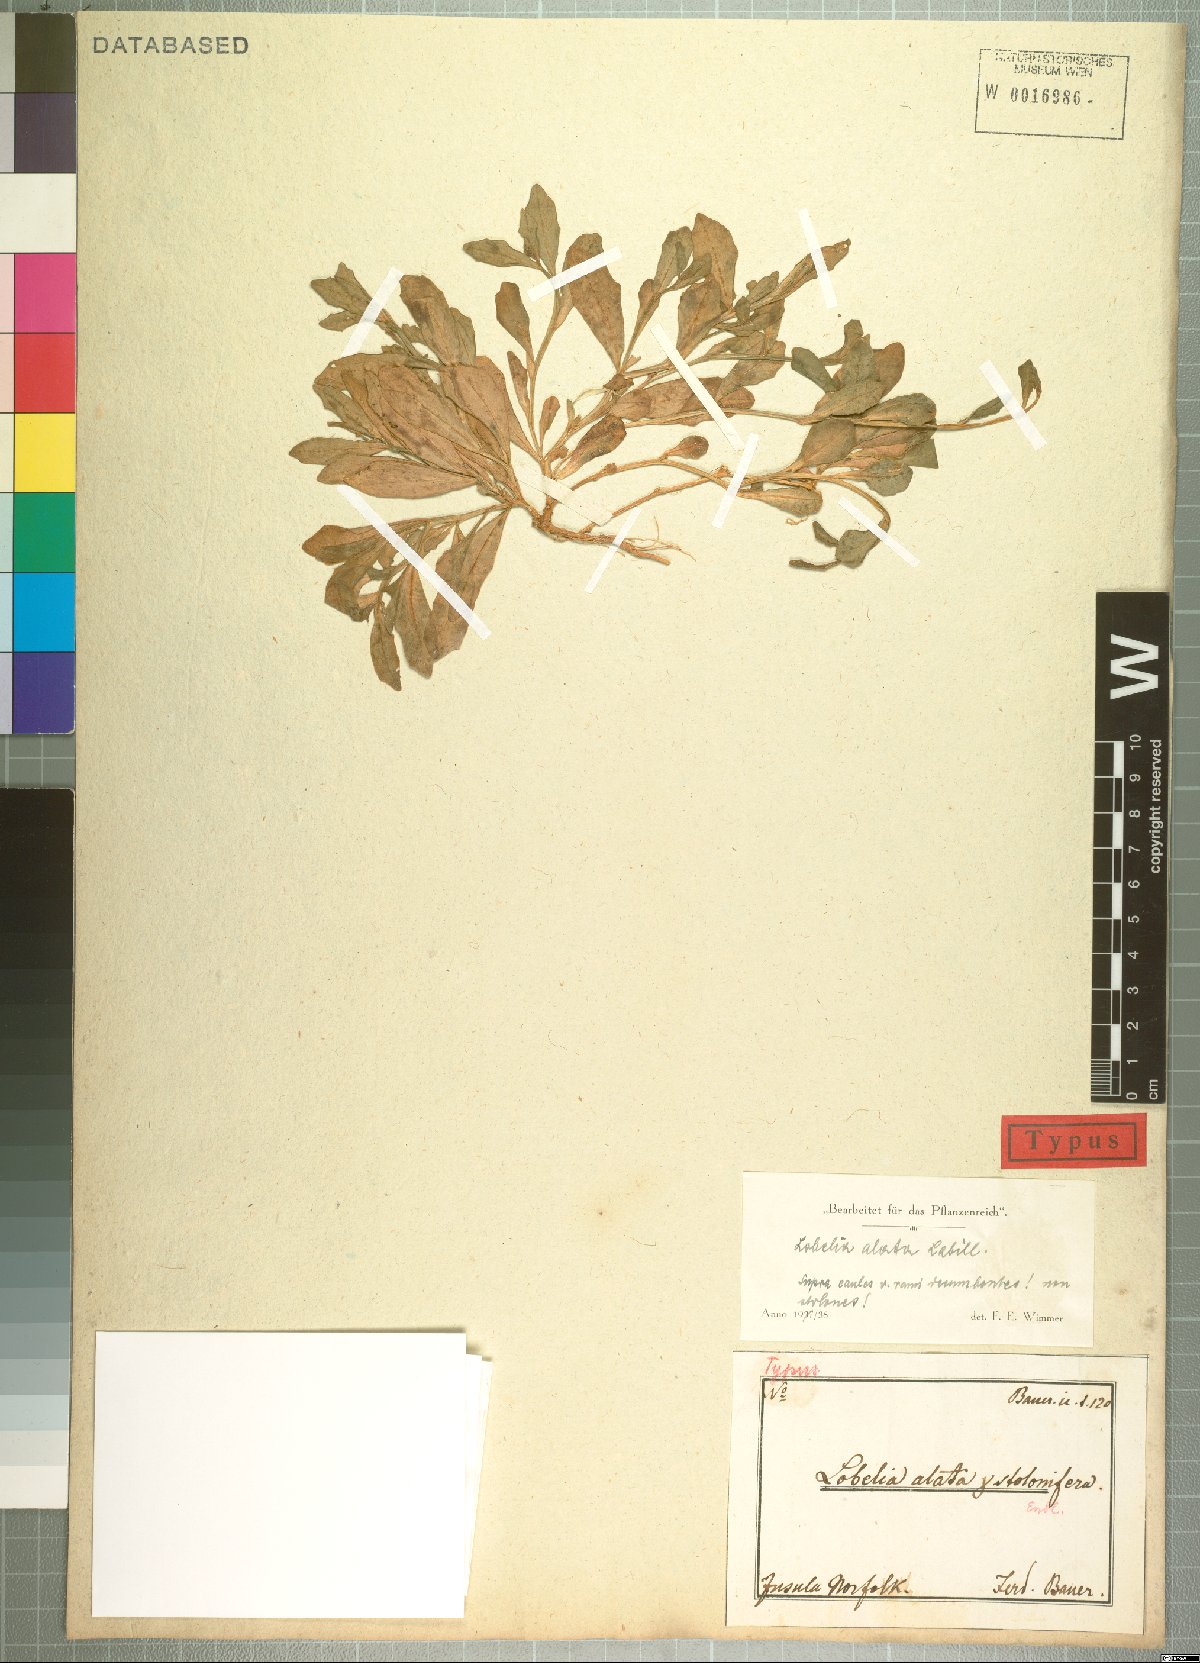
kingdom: Plantae
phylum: Tracheophyta
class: Magnoliopsida
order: Asterales
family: Campanulaceae
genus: Lobelia
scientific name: Lobelia anceps
